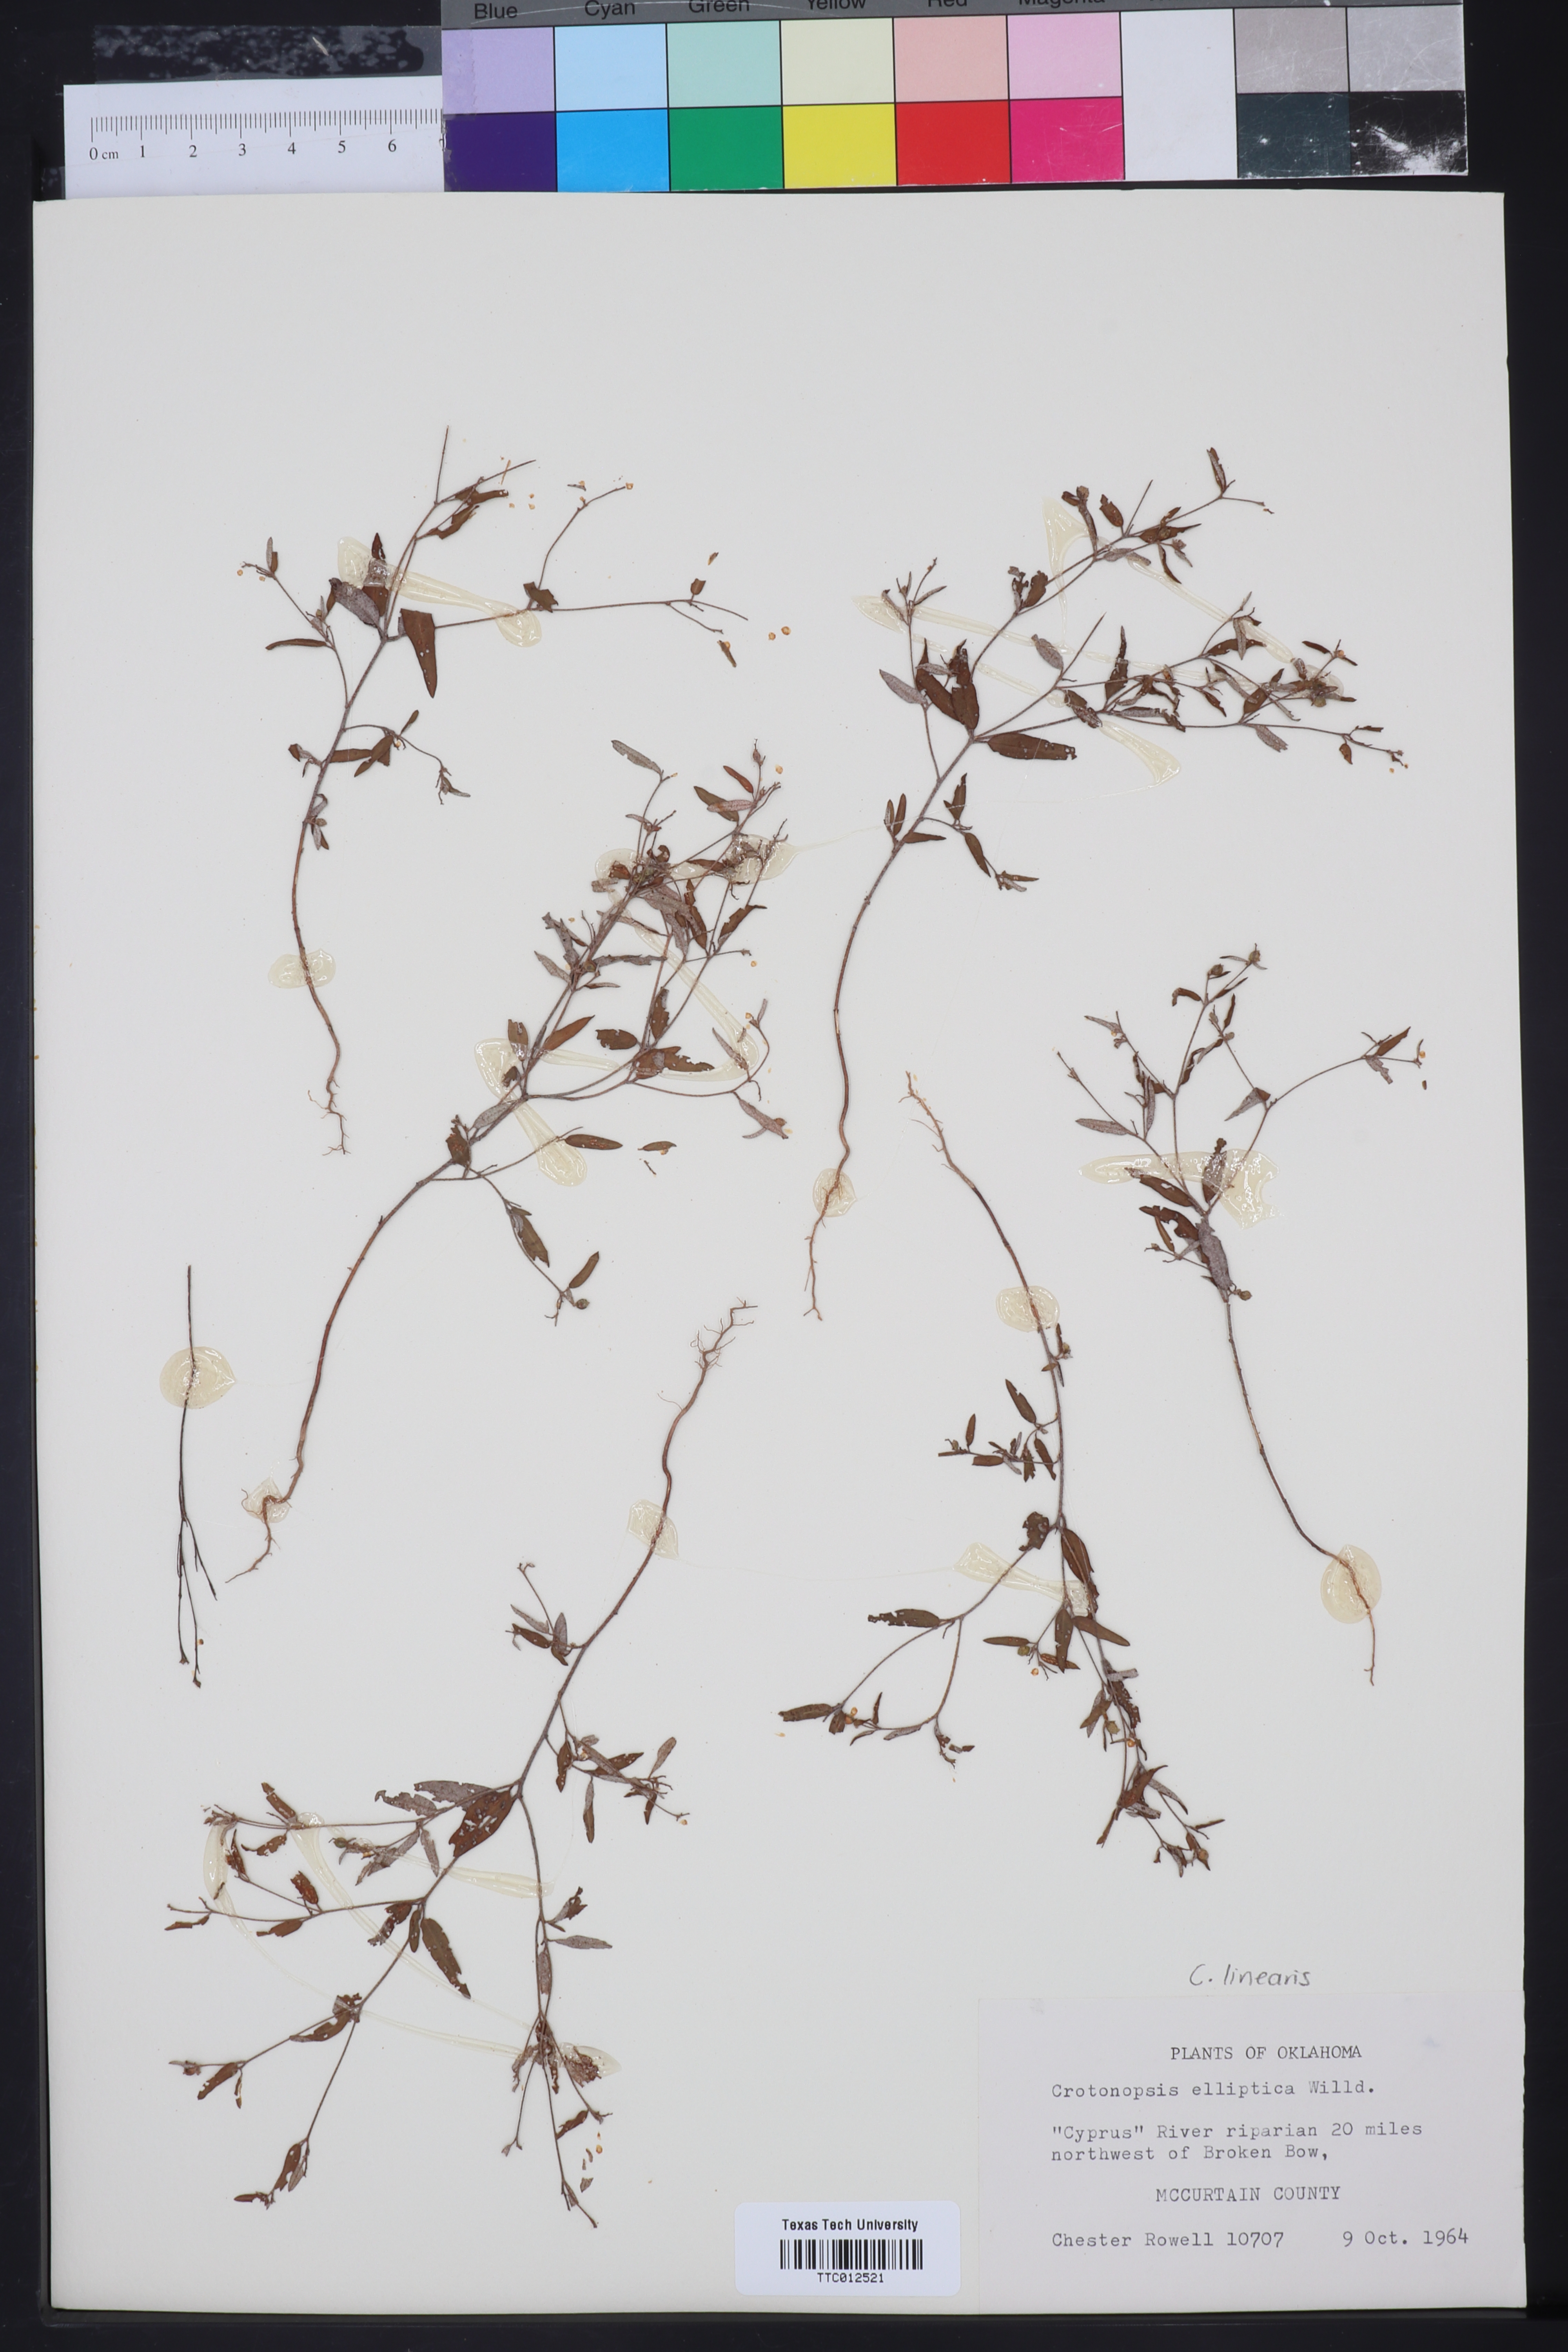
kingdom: Plantae
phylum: Tracheophyta
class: Magnoliopsida
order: Malpighiales
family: Euphorbiaceae
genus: Croton
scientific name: Croton michauxii
